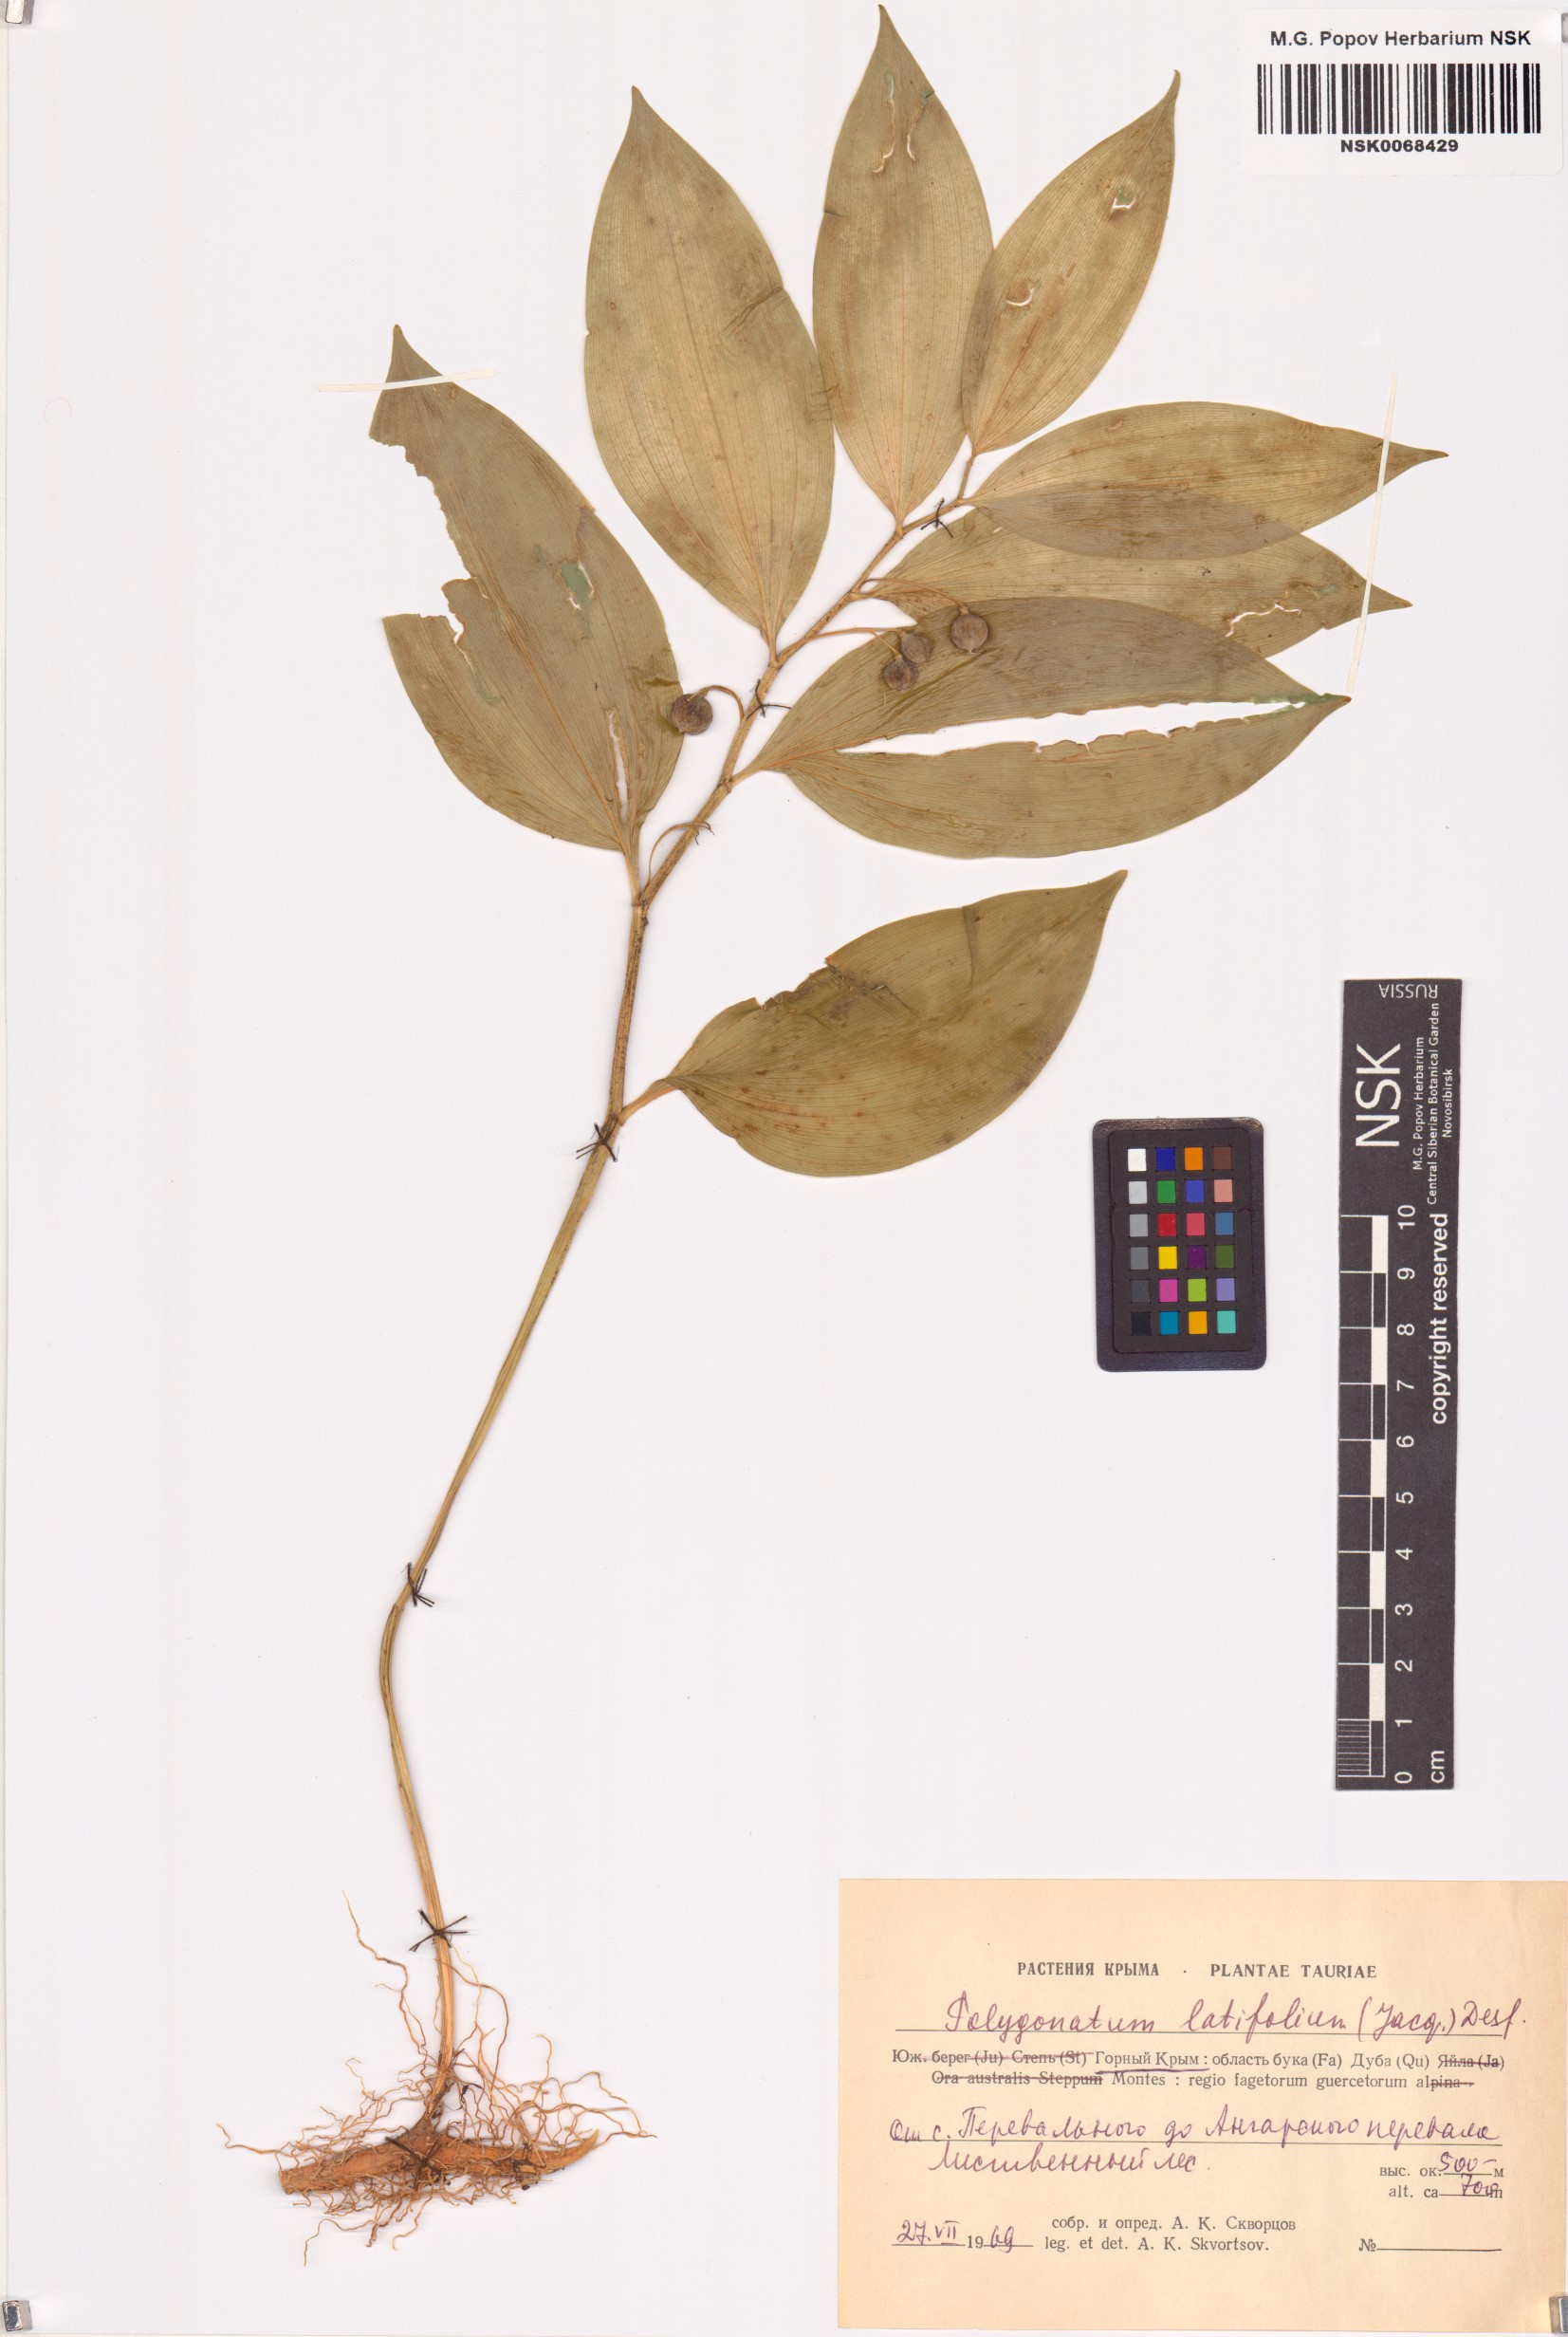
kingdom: Plantae
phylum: Tracheophyta
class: Magnoliopsida
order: Caryophyllales
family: Polygonaceae
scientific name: Polygonaceae
